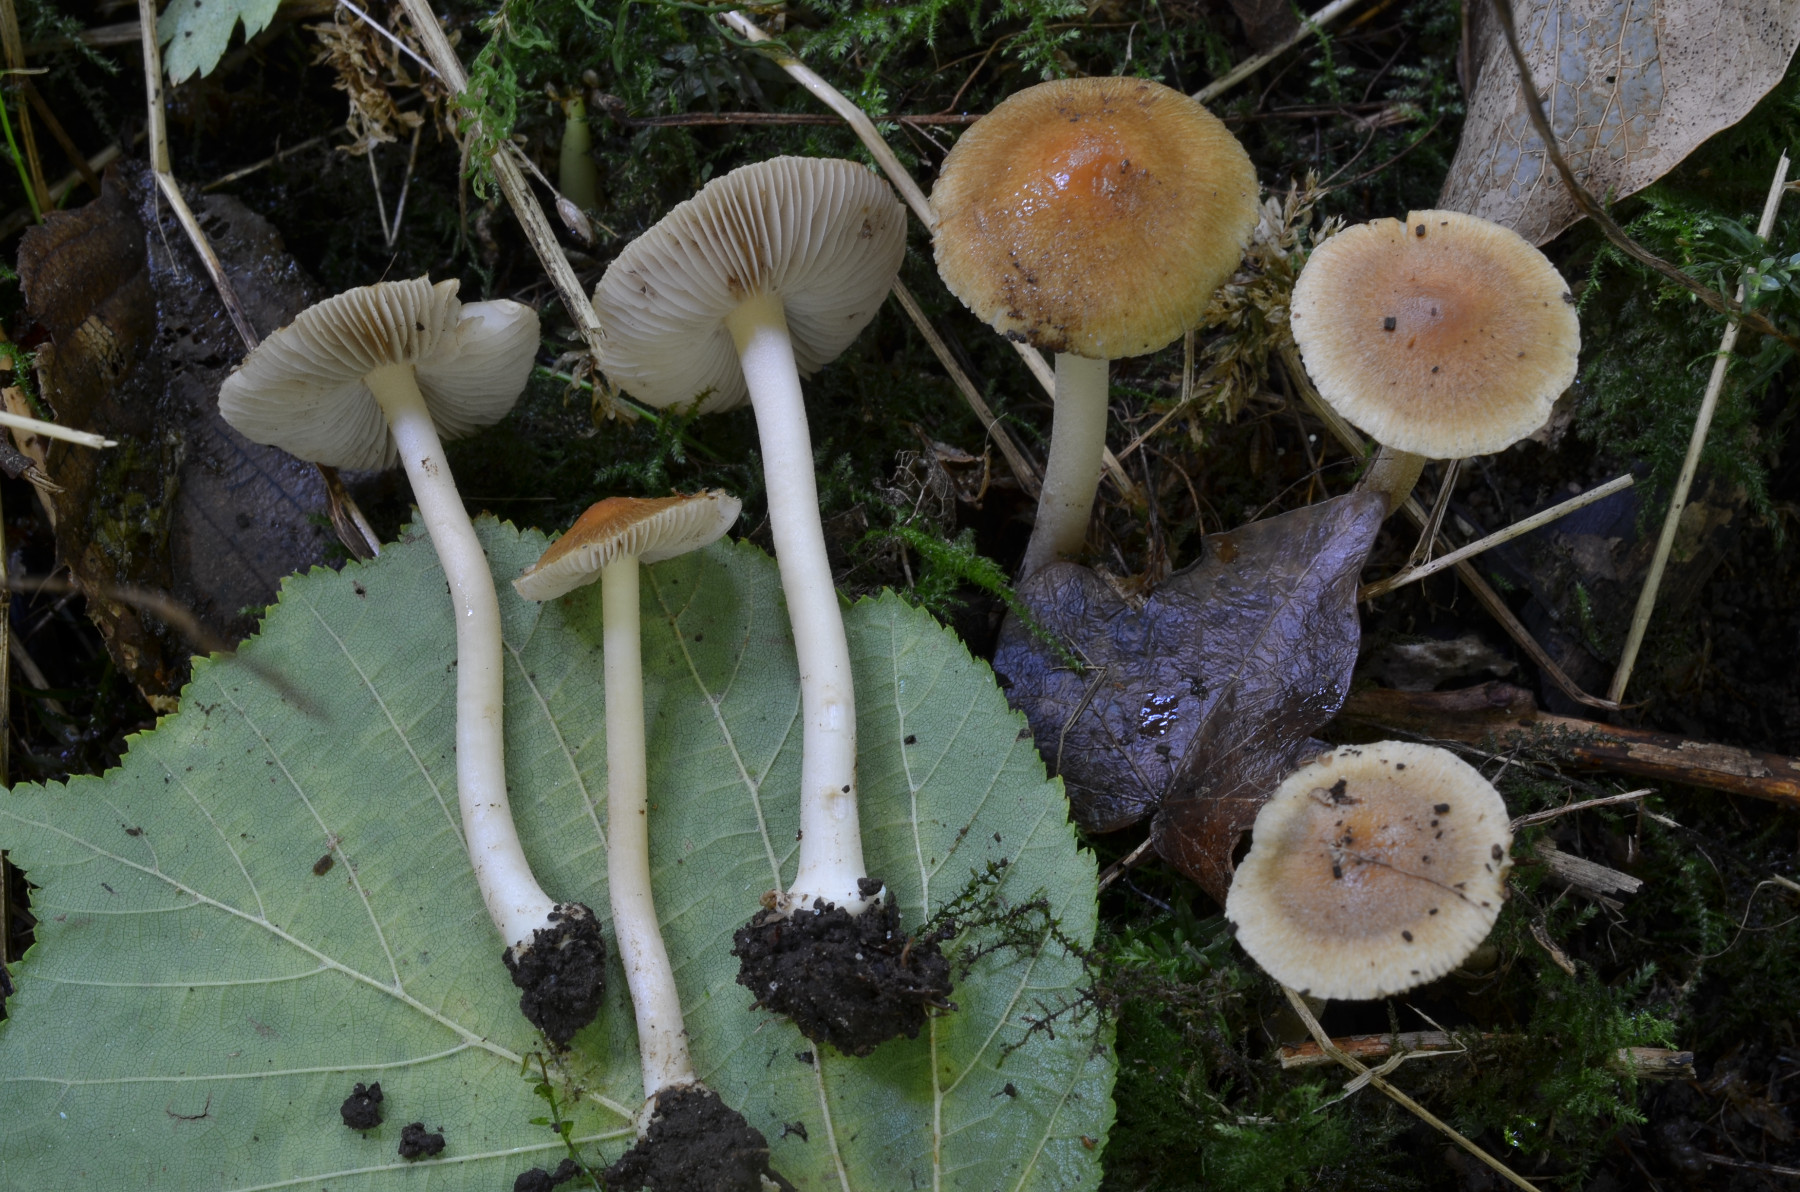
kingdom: Fungi
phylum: Basidiomycota
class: Agaricomycetes
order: Agaricales
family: Inocybaceae
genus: Inocybe
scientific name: Inocybe mixtilis
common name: randknoldet trævlhat
